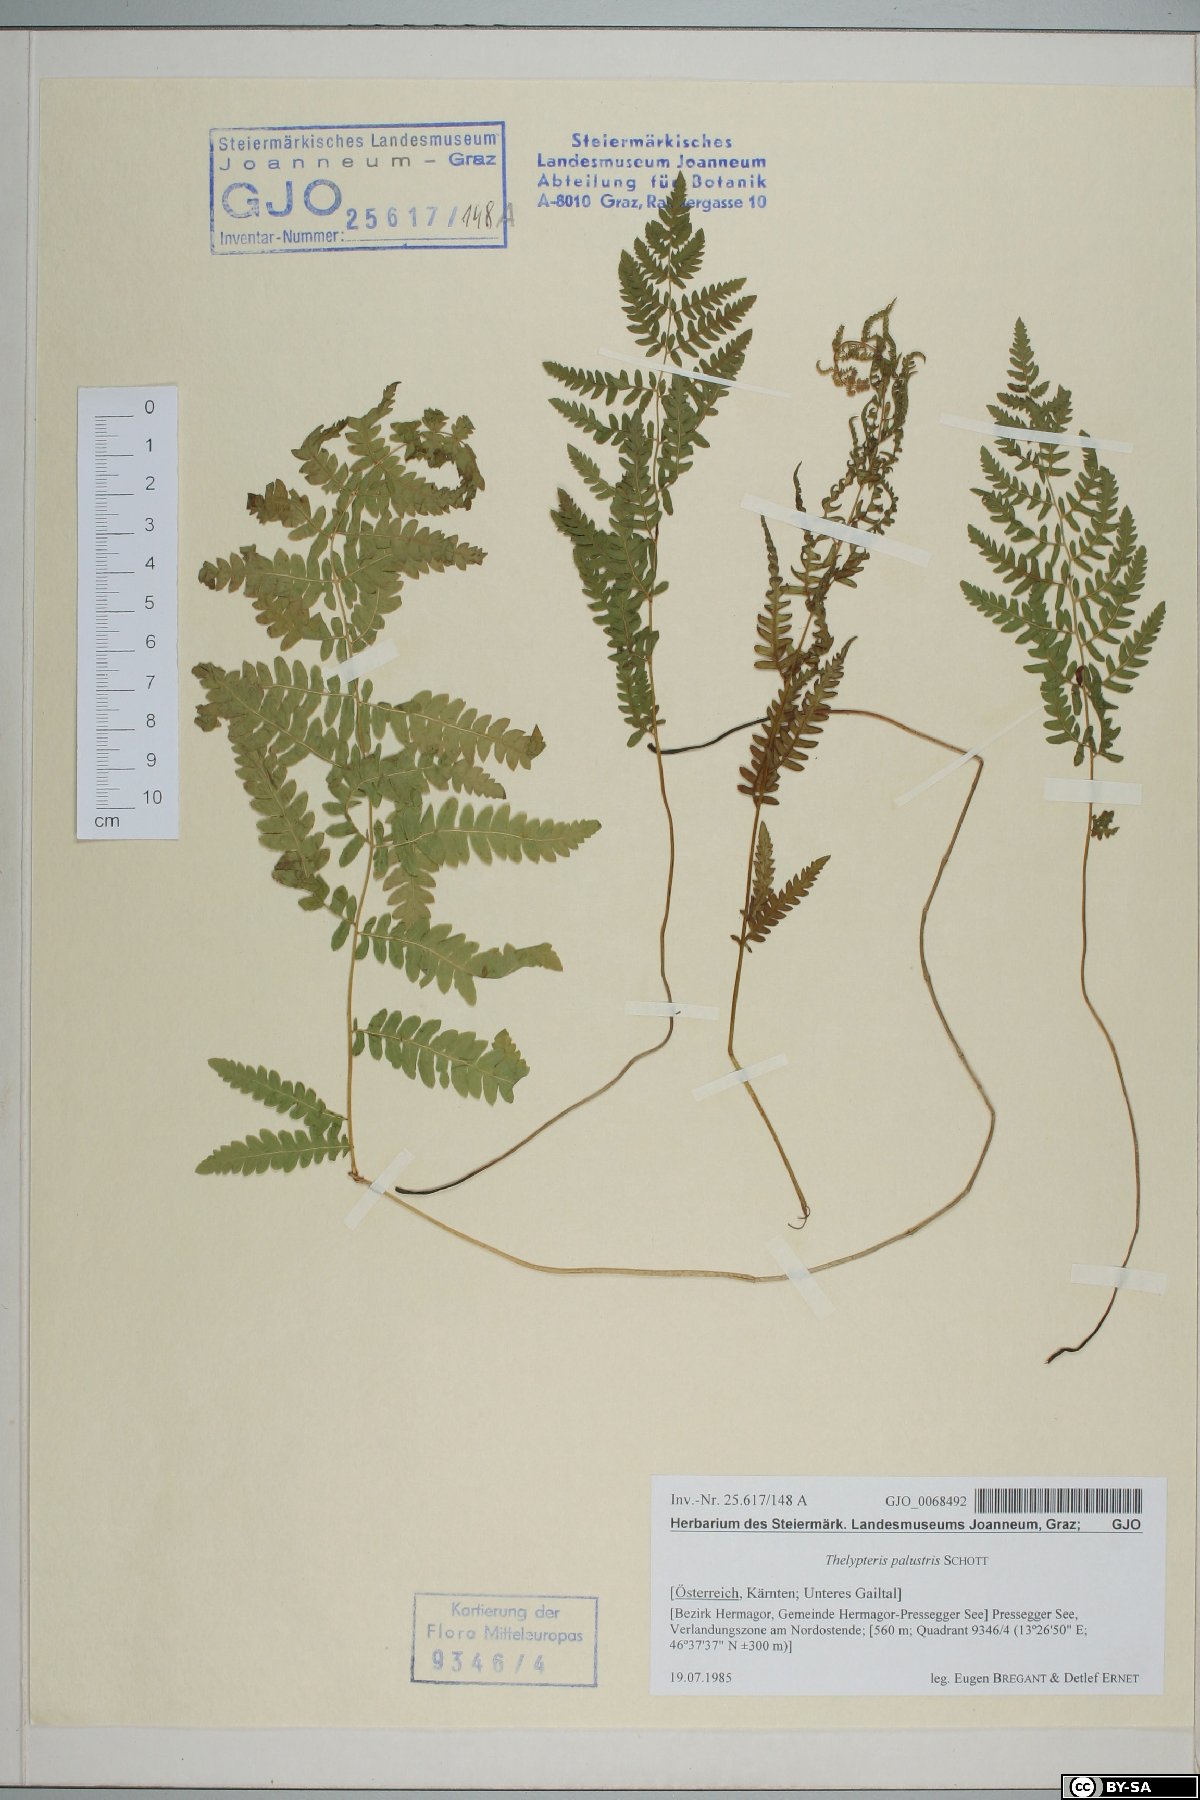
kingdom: Plantae
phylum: Tracheophyta
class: Polypodiopsida
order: Polypodiales
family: Thelypteridaceae
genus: Thelypteris
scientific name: Thelypteris palustris
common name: Marsh fern
